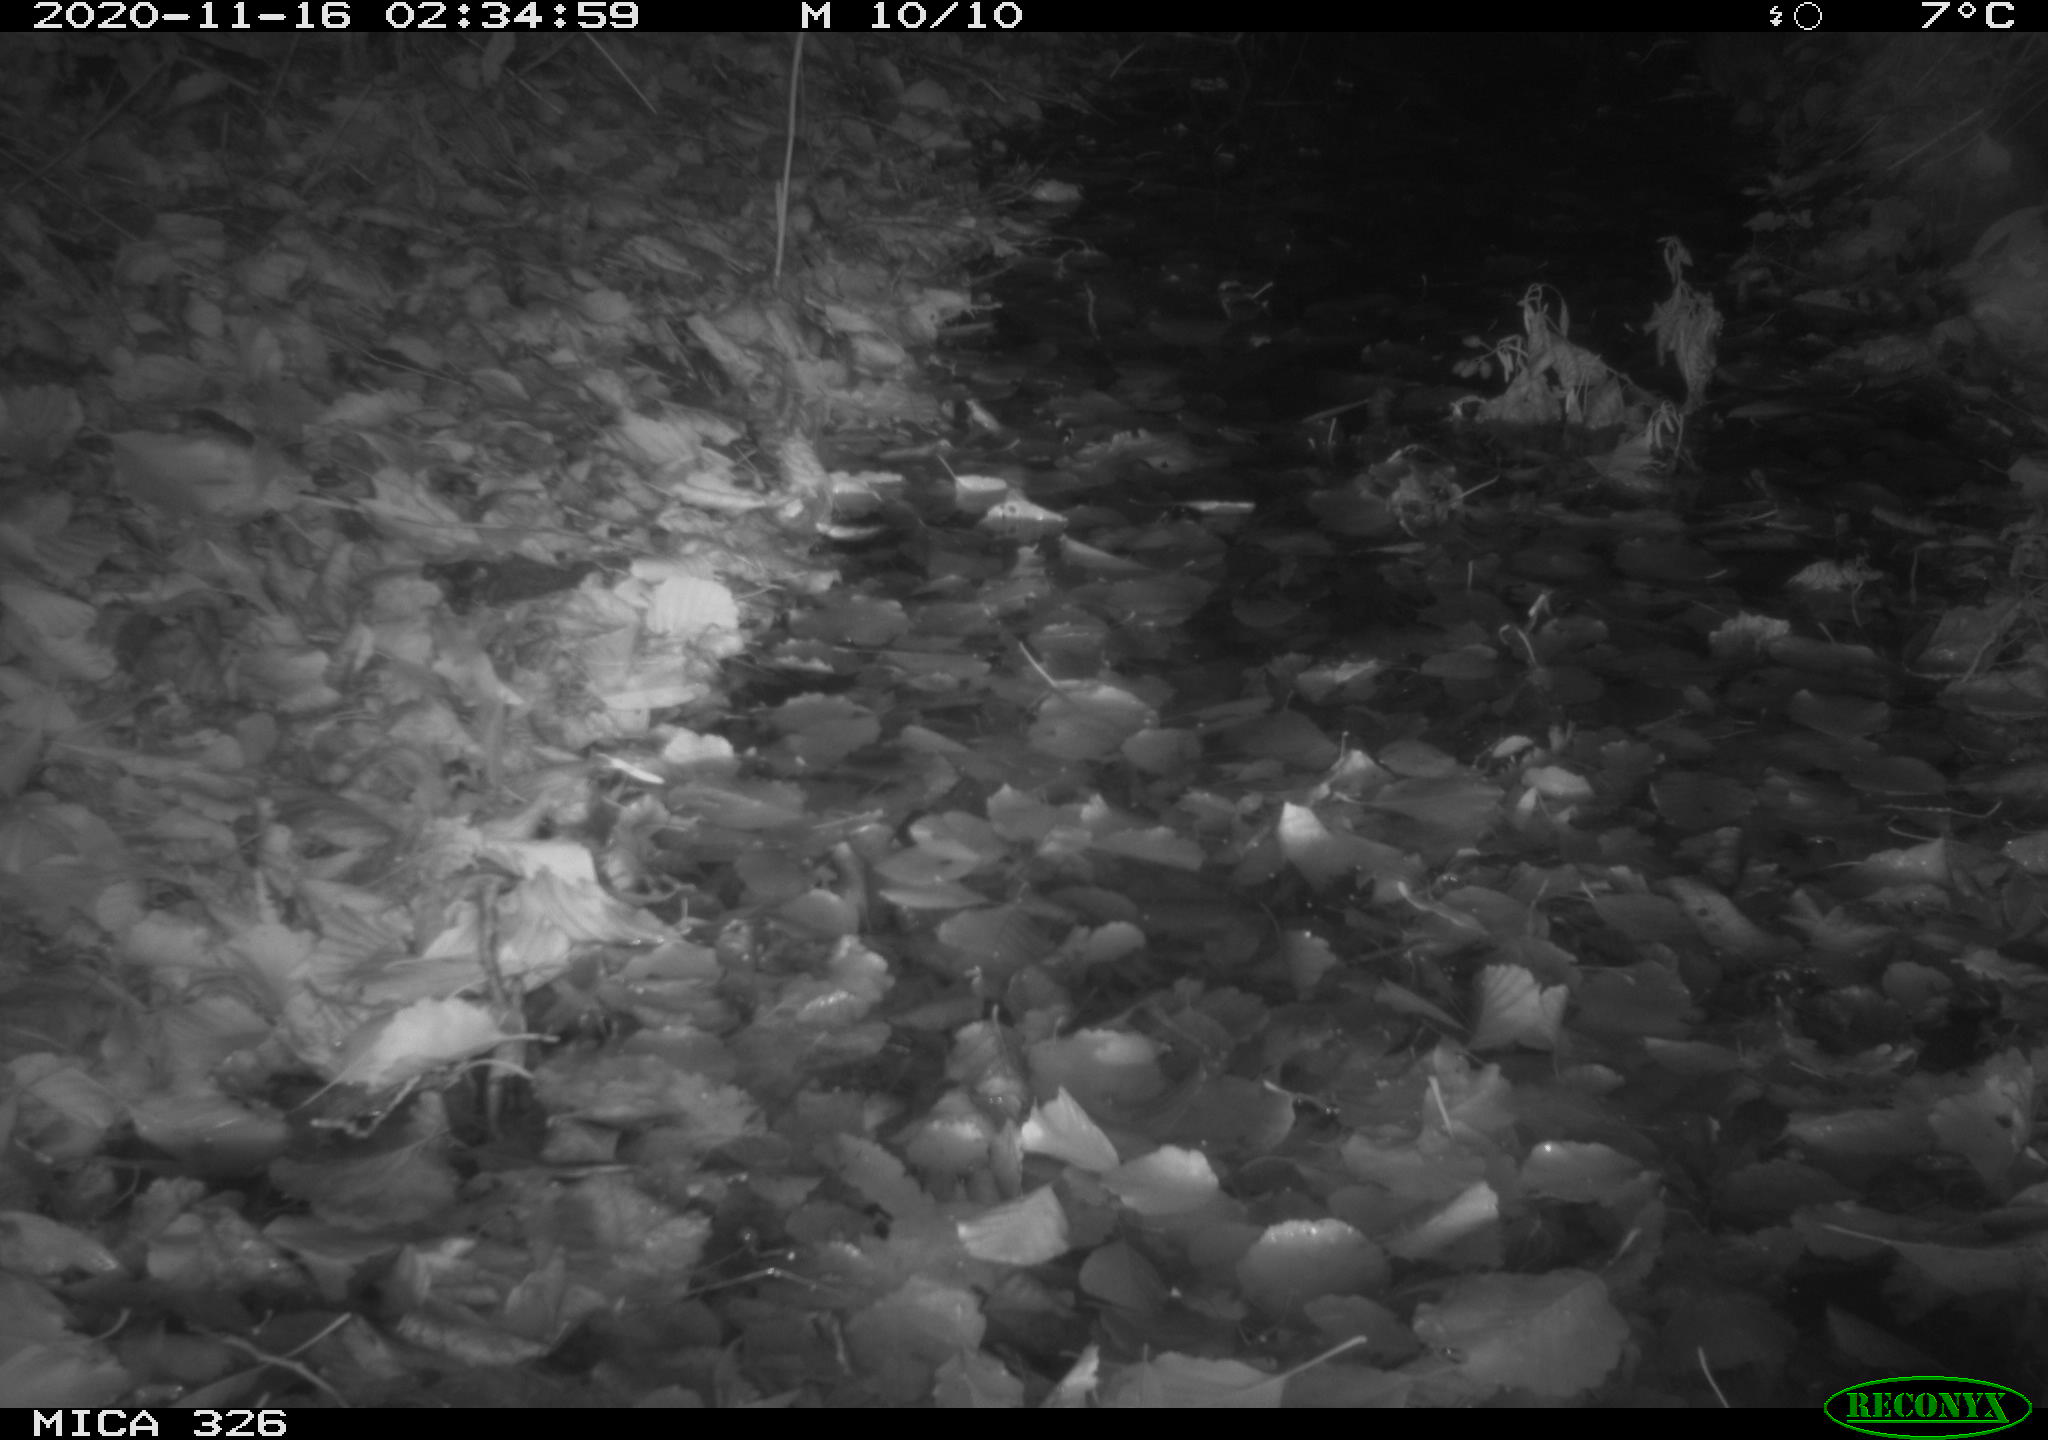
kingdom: Animalia
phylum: Chordata
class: Mammalia
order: Rodentia
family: Muridae
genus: Rattus
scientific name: Rattus norvegicus
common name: Brown rat
